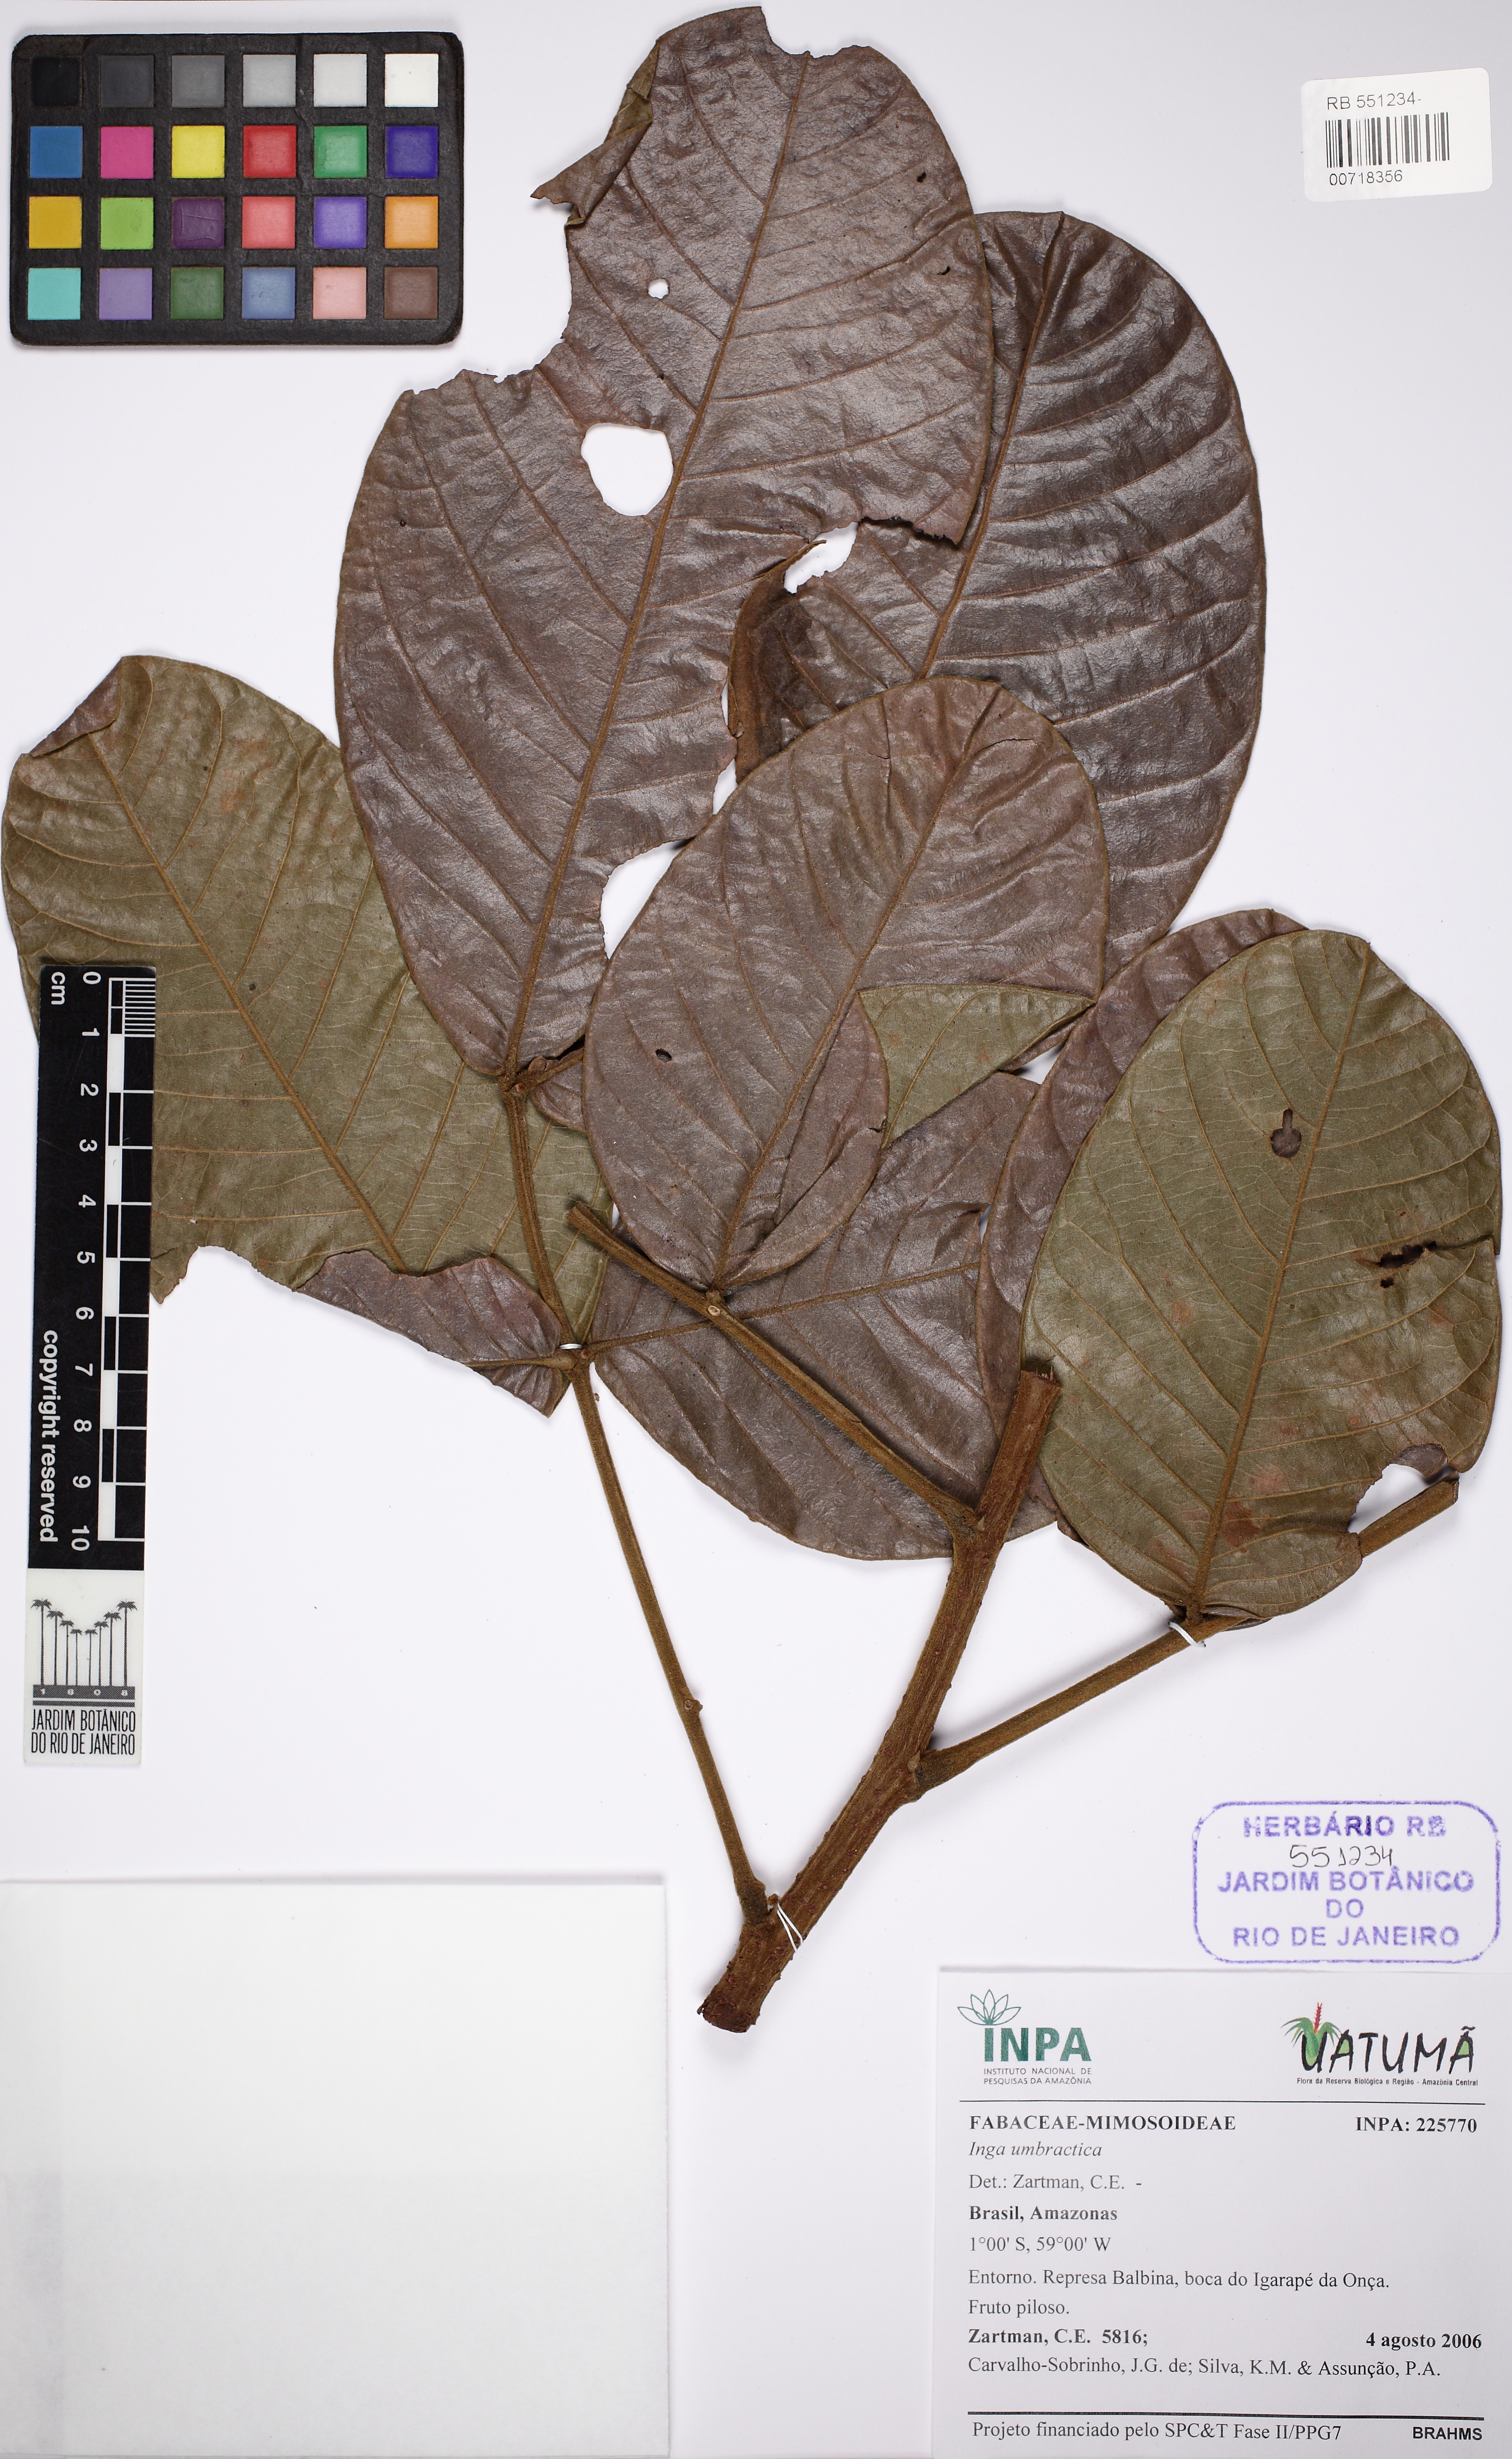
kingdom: Plantae
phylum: Tracheophyta
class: Magnoliopsida
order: Fabales
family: Fabaceae
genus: Inga
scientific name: Inga umbratica
